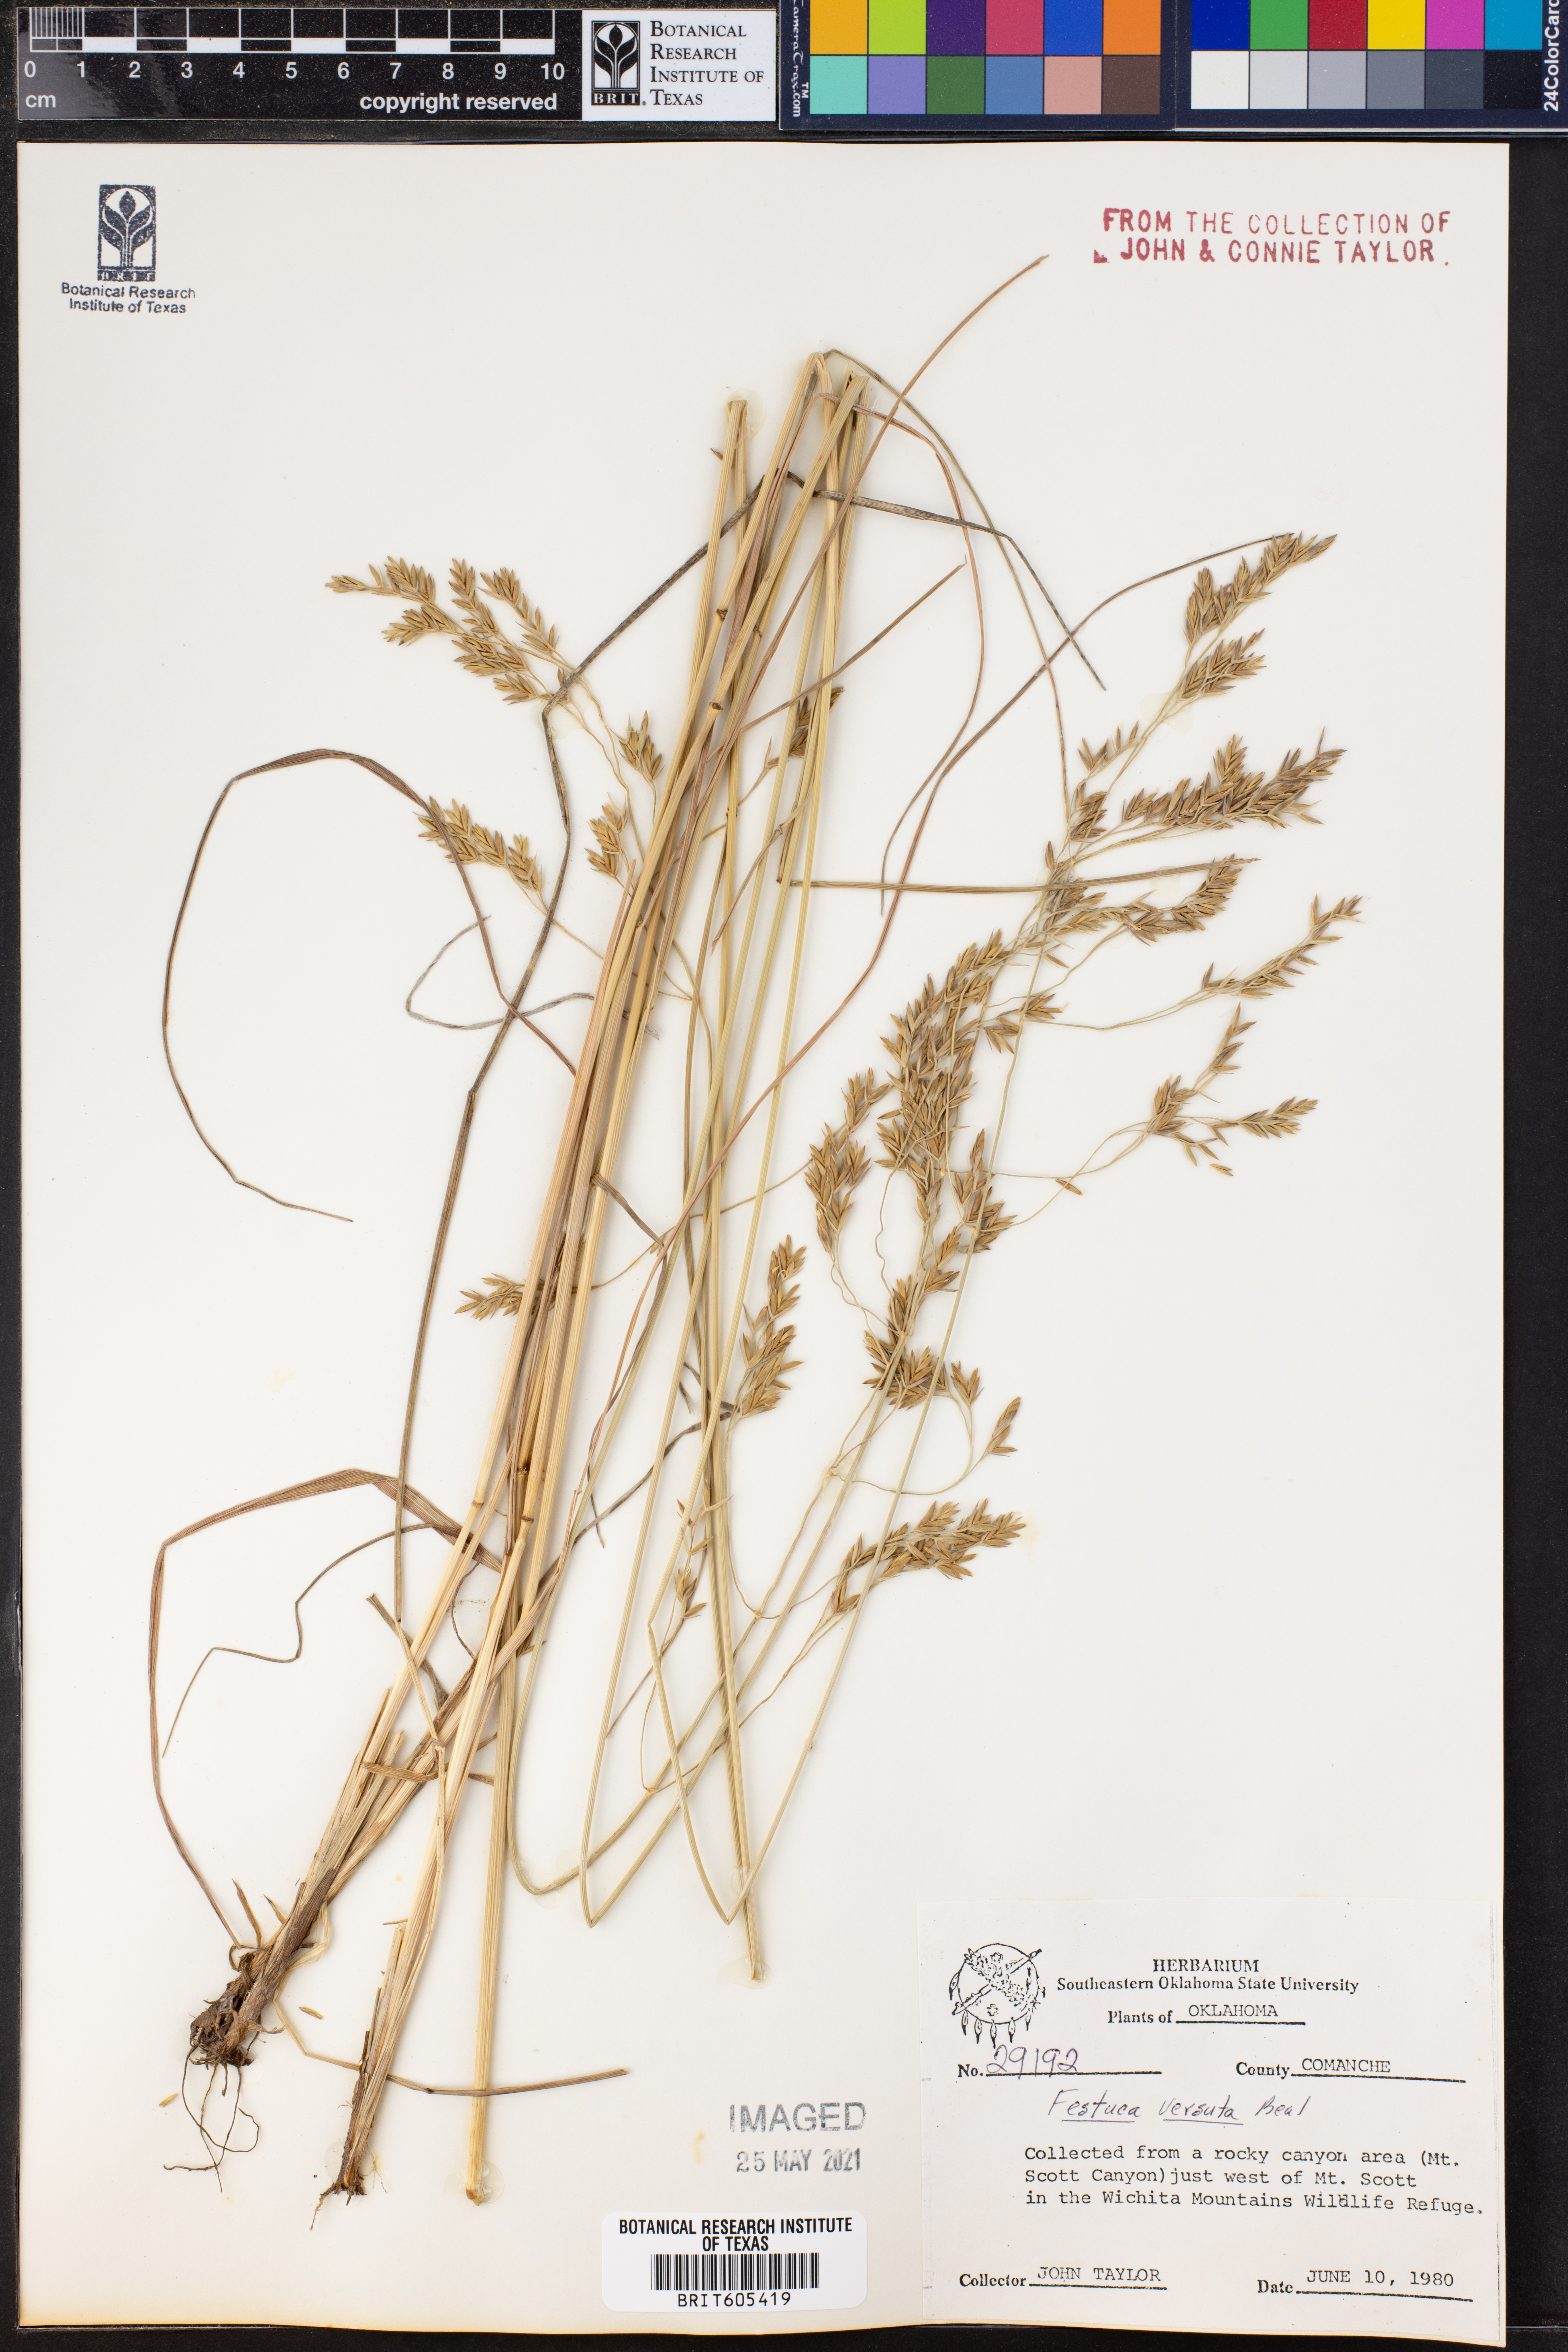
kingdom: Plantae
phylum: Tracheophyta
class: Liliopsida
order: Poales
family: Poaceae
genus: Festuca
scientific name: Festuca versuta
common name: Texas fescue
